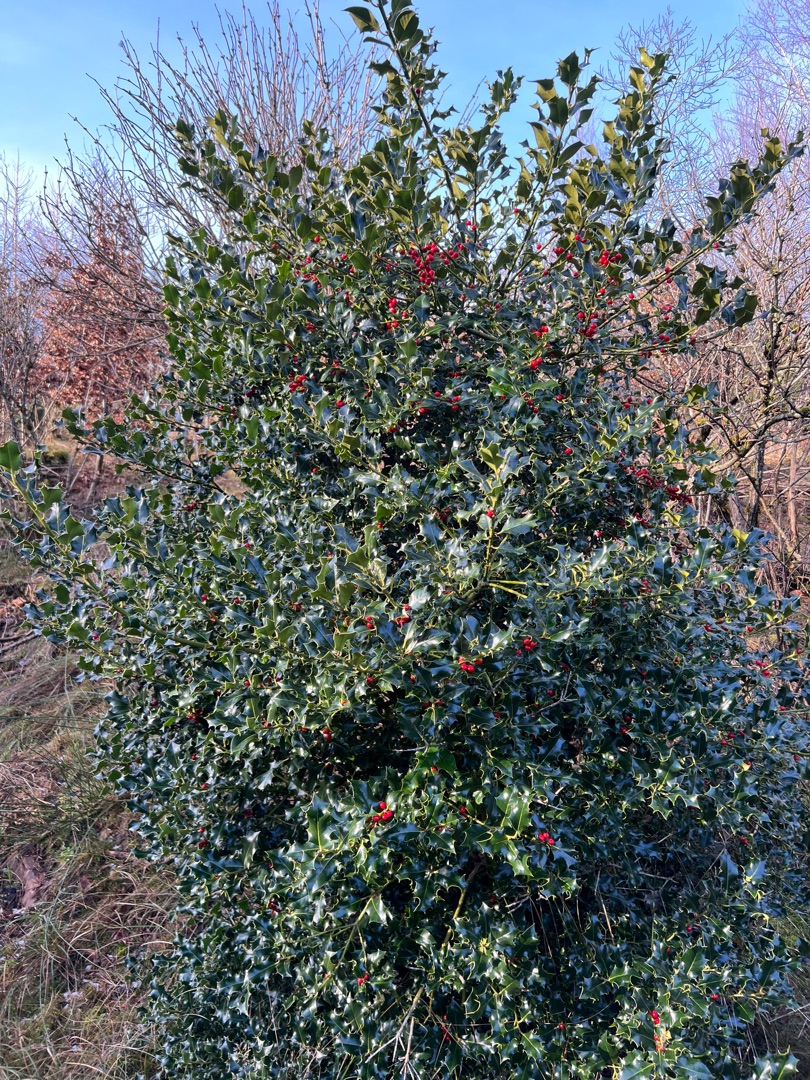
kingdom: Plantae
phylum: Tracheophyta
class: Magnoliopsida
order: Aquifoliales
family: Aquifoliaceae
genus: Ilex
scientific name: Ilex aquifolium
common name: Kristtorn
